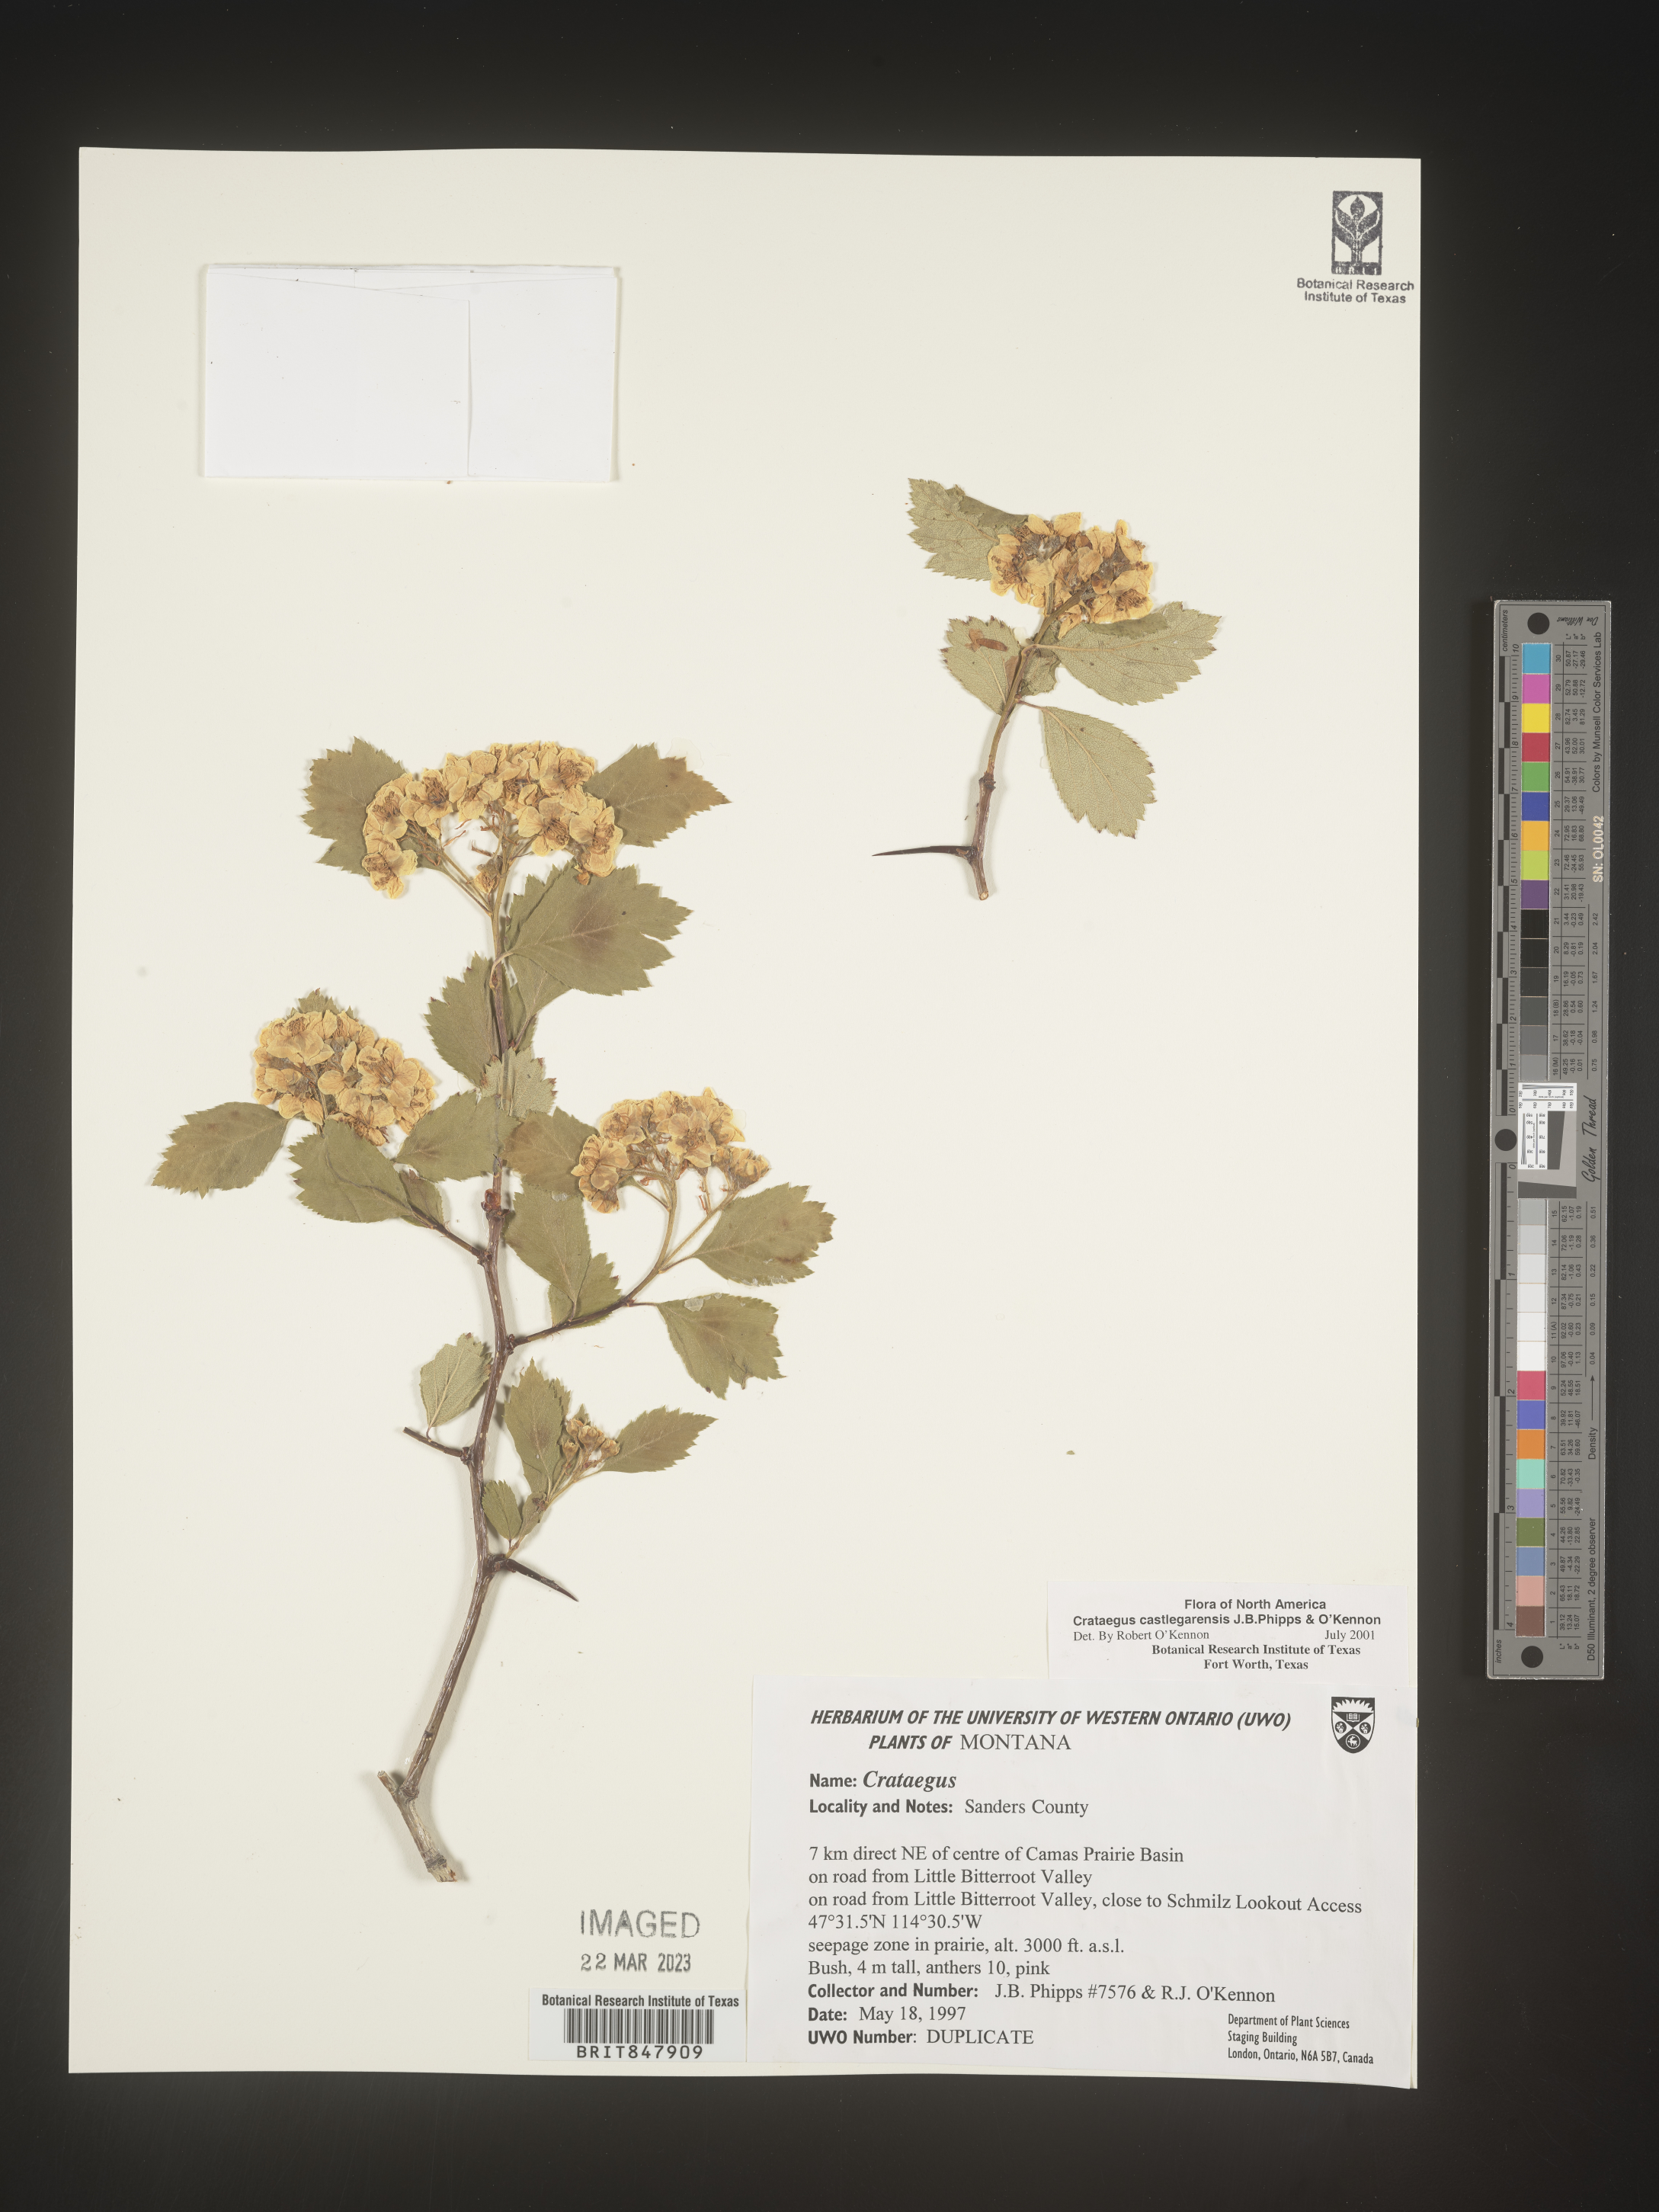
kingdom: Plantae
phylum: Tracheophyta
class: Magnoliopsida
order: Rosales
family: Rosaceae
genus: Crataegus
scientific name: Crataegus castlegarensis
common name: Castlegar hawthorn
